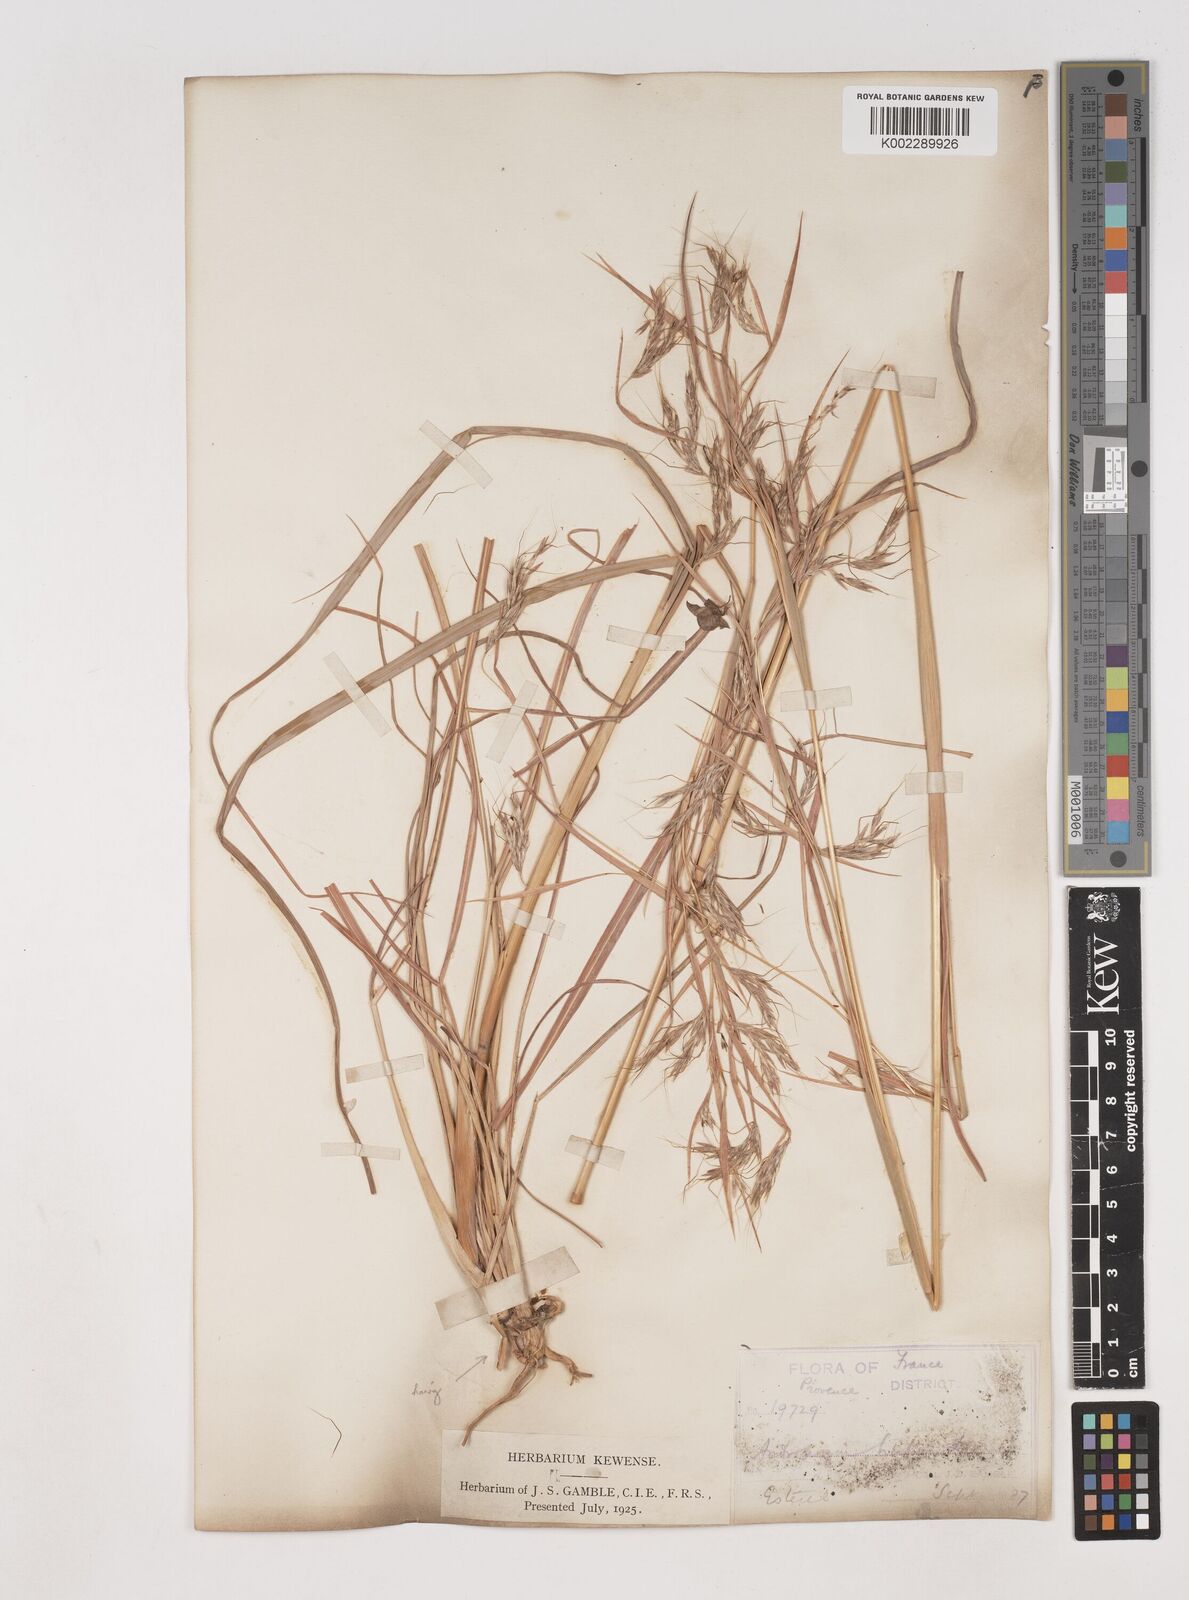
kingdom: Plantae
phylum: Tracheophyta
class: Liliopsida
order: Poales
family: Poaceae
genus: Hyparrhenia
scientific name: Hyparrhenia hirta
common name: Thatching grass
